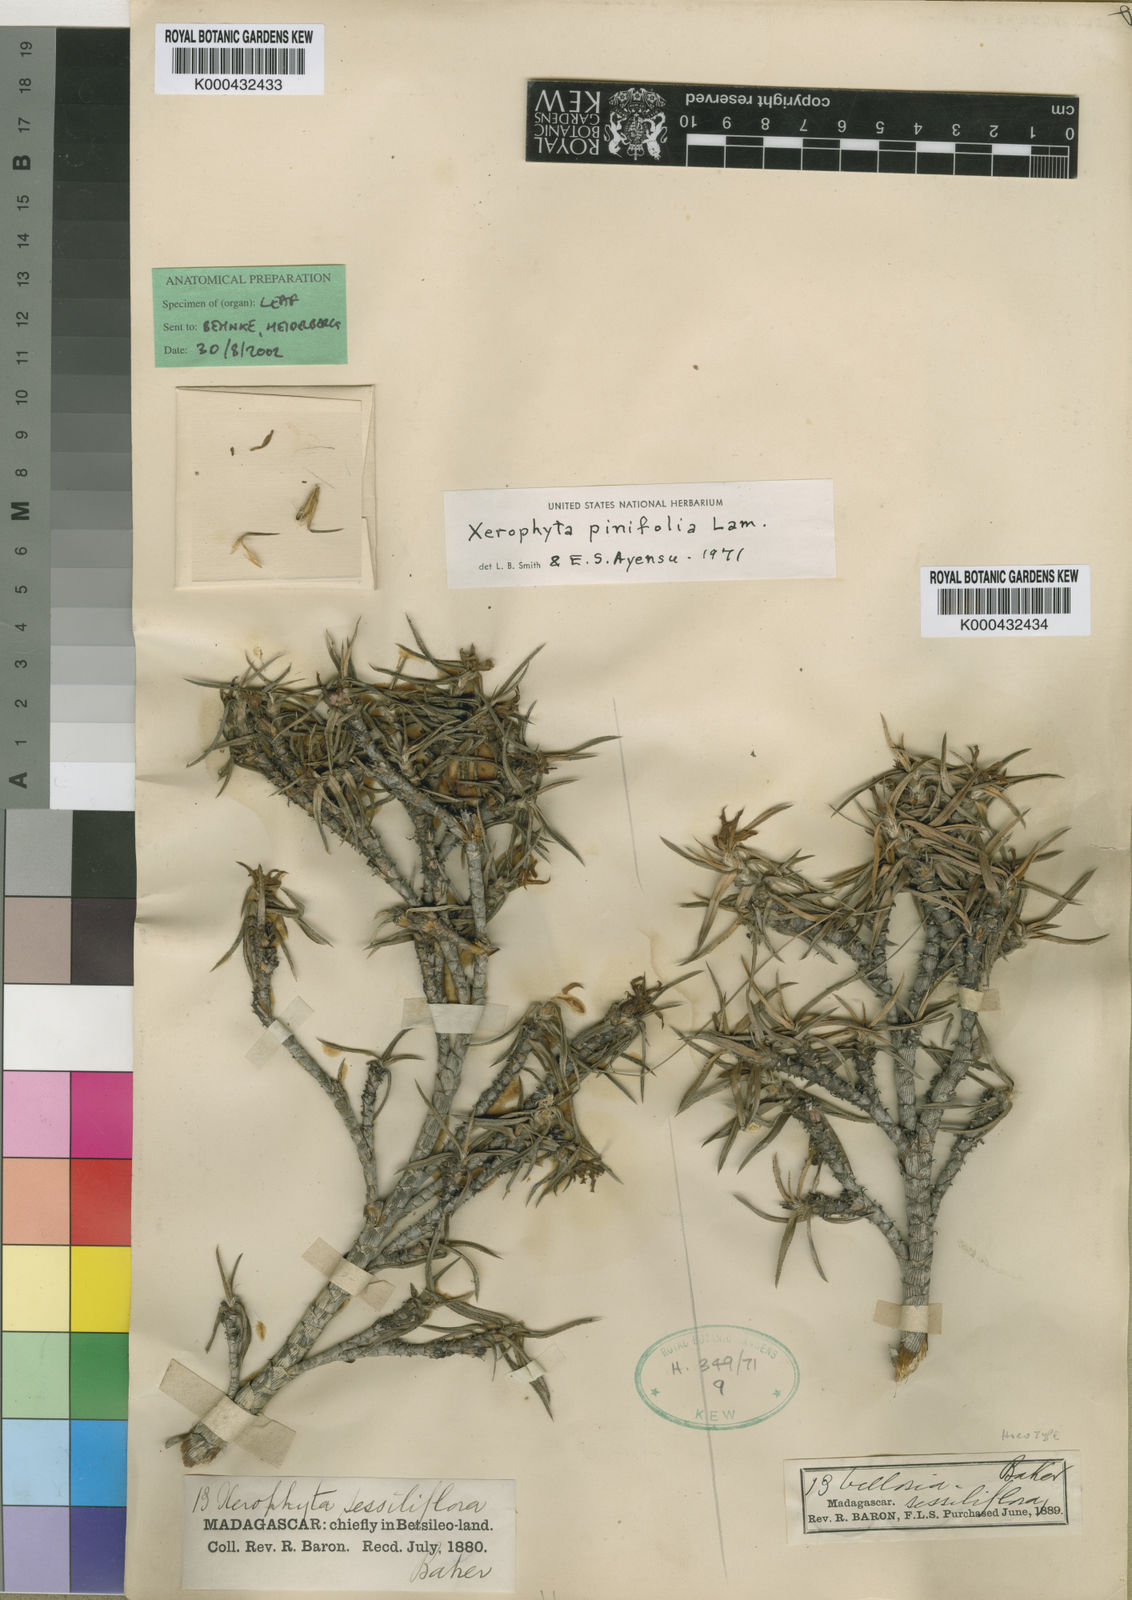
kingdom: Plantae
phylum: Tracheophyta
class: Liliopsida
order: Pandanales
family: Velloziaceae
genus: Xerophyta
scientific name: Xerophyta sessiliflora
